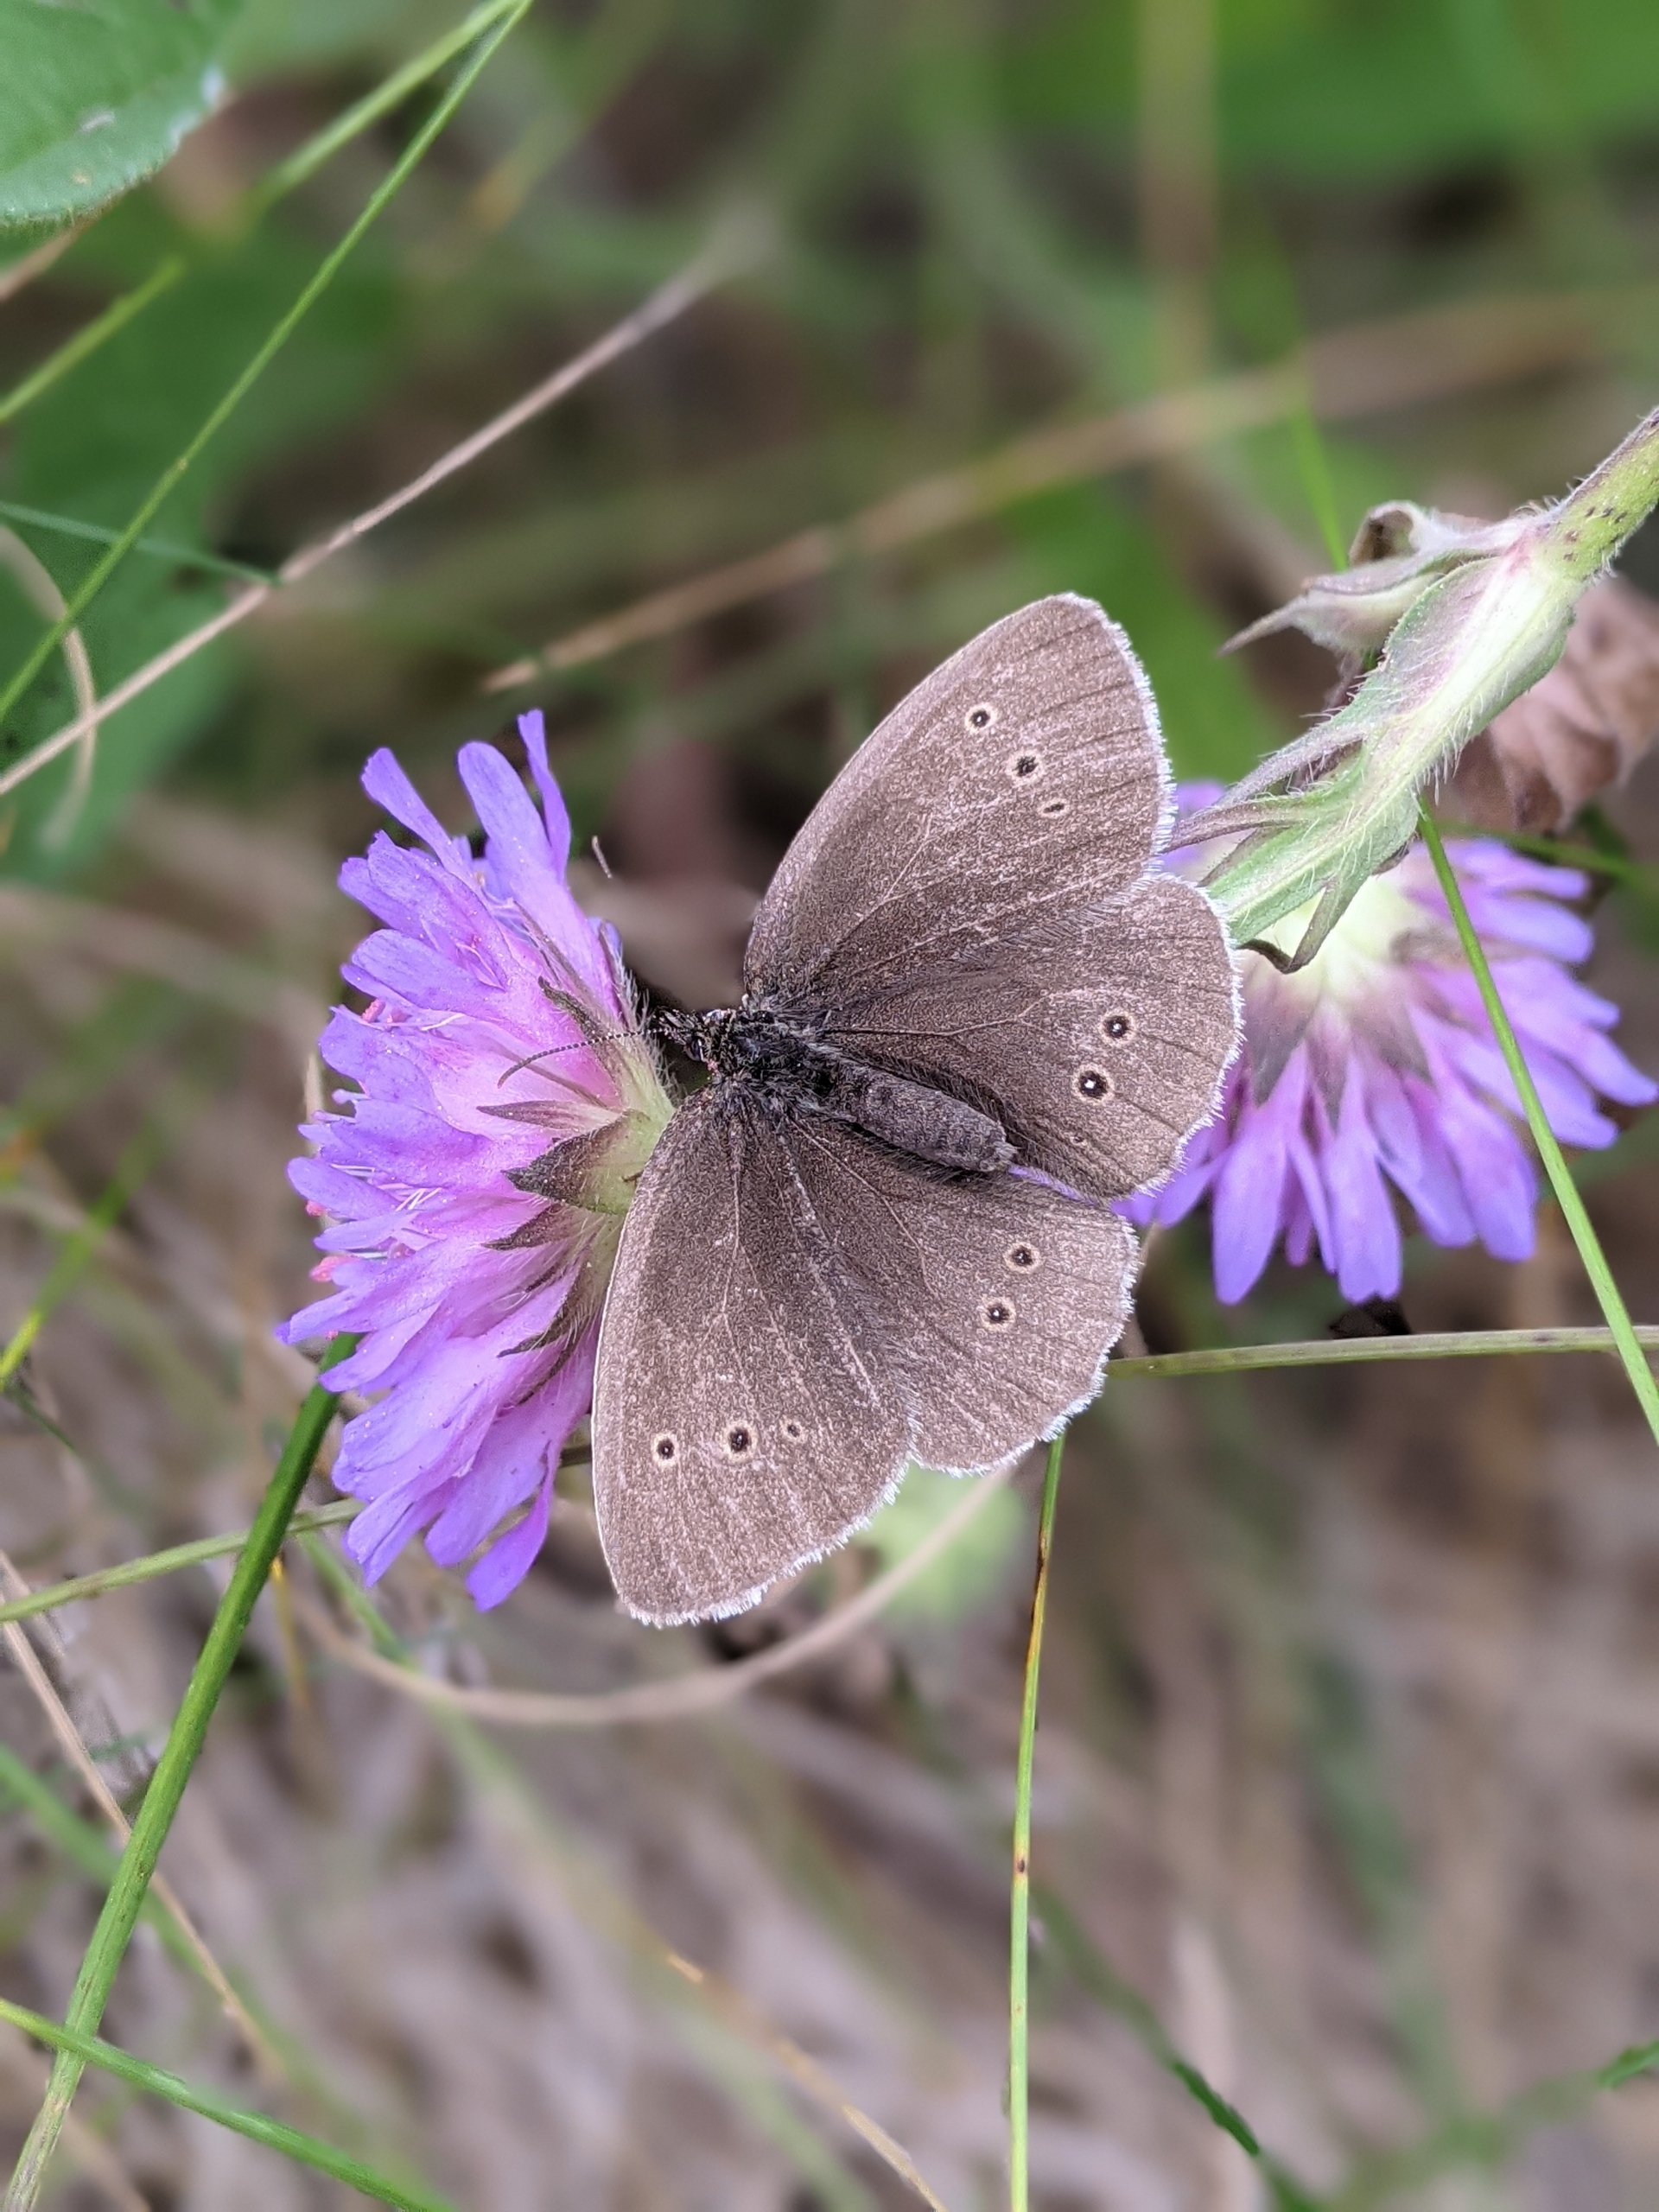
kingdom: Animalia
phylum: Arthropoda
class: Insecta
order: Lepidoptera
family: Nymphalidae
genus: Aphantopus
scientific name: Aphantopus hyperantus
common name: Engrandøje
